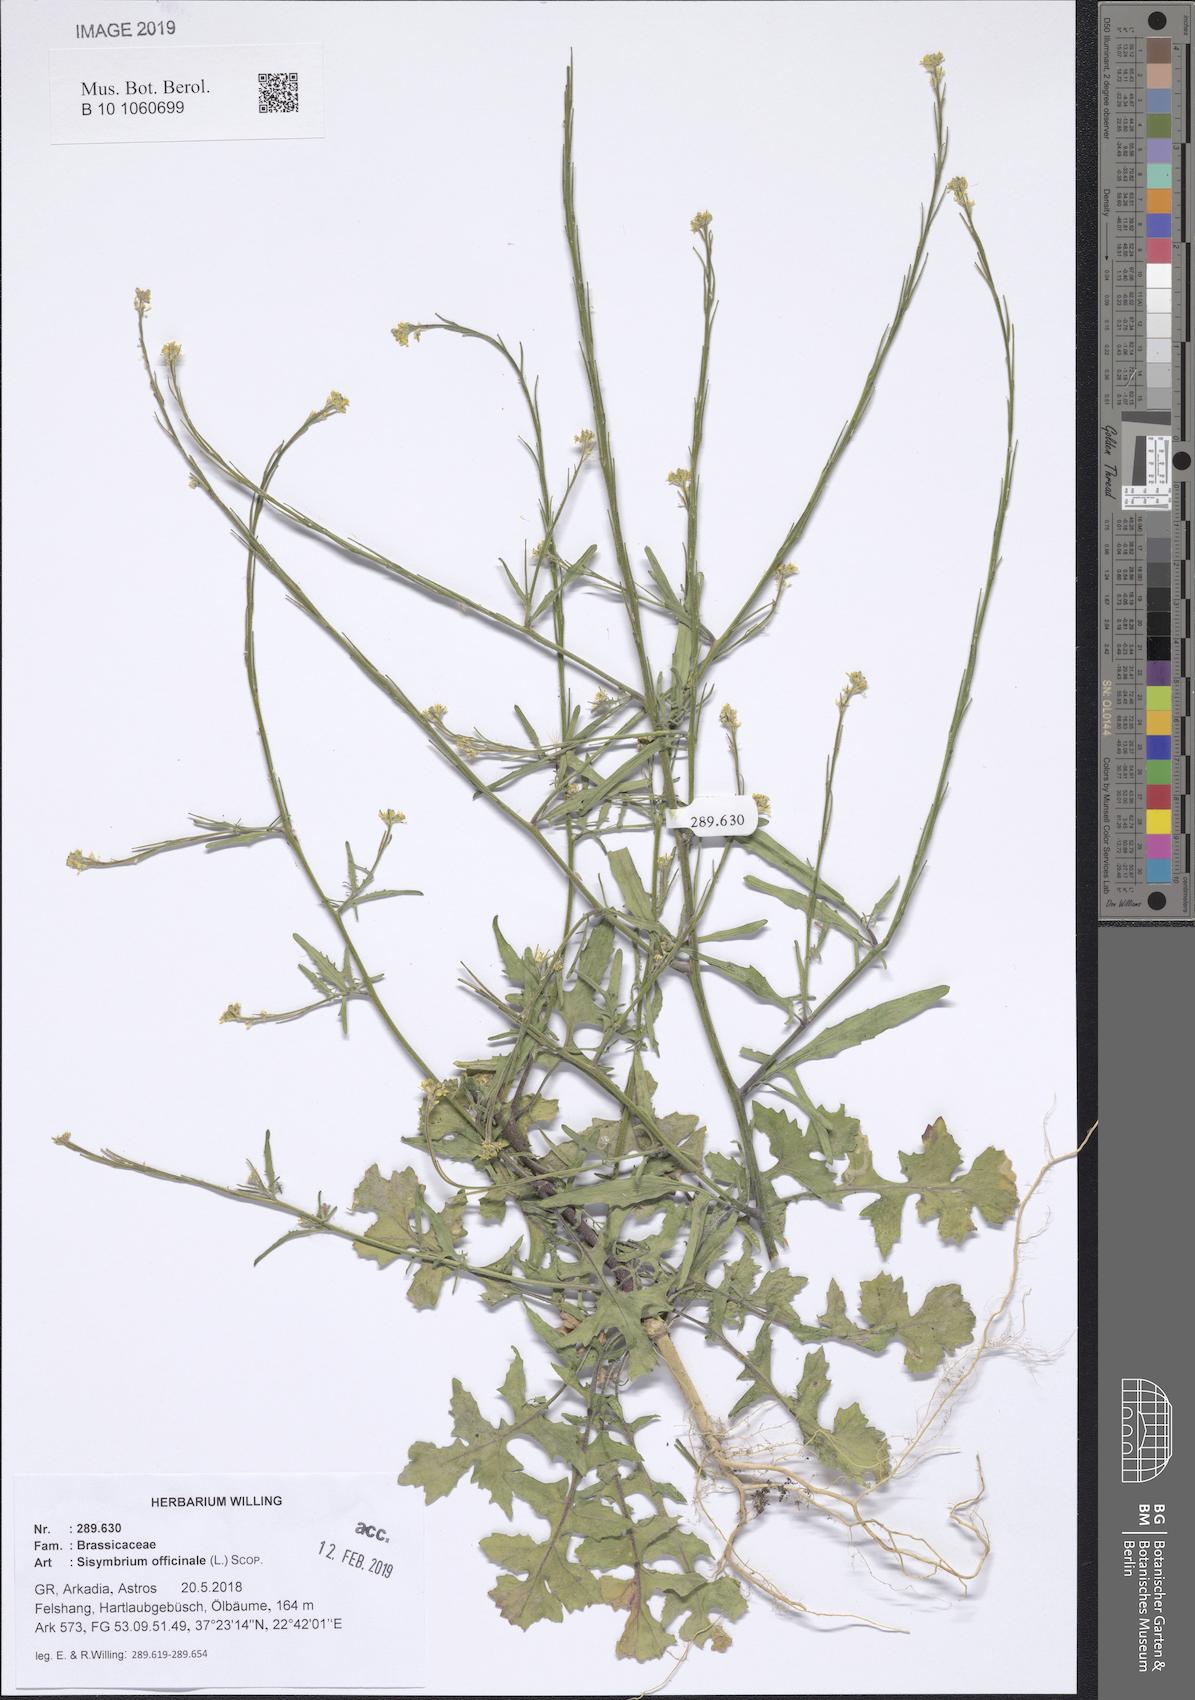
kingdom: Plantae
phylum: Tracheophyta
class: Magnoliopsida
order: Brassicales
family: Brassicaceae
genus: Sisymbrium
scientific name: Sisymbrium officinale
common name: Hedge mustard
